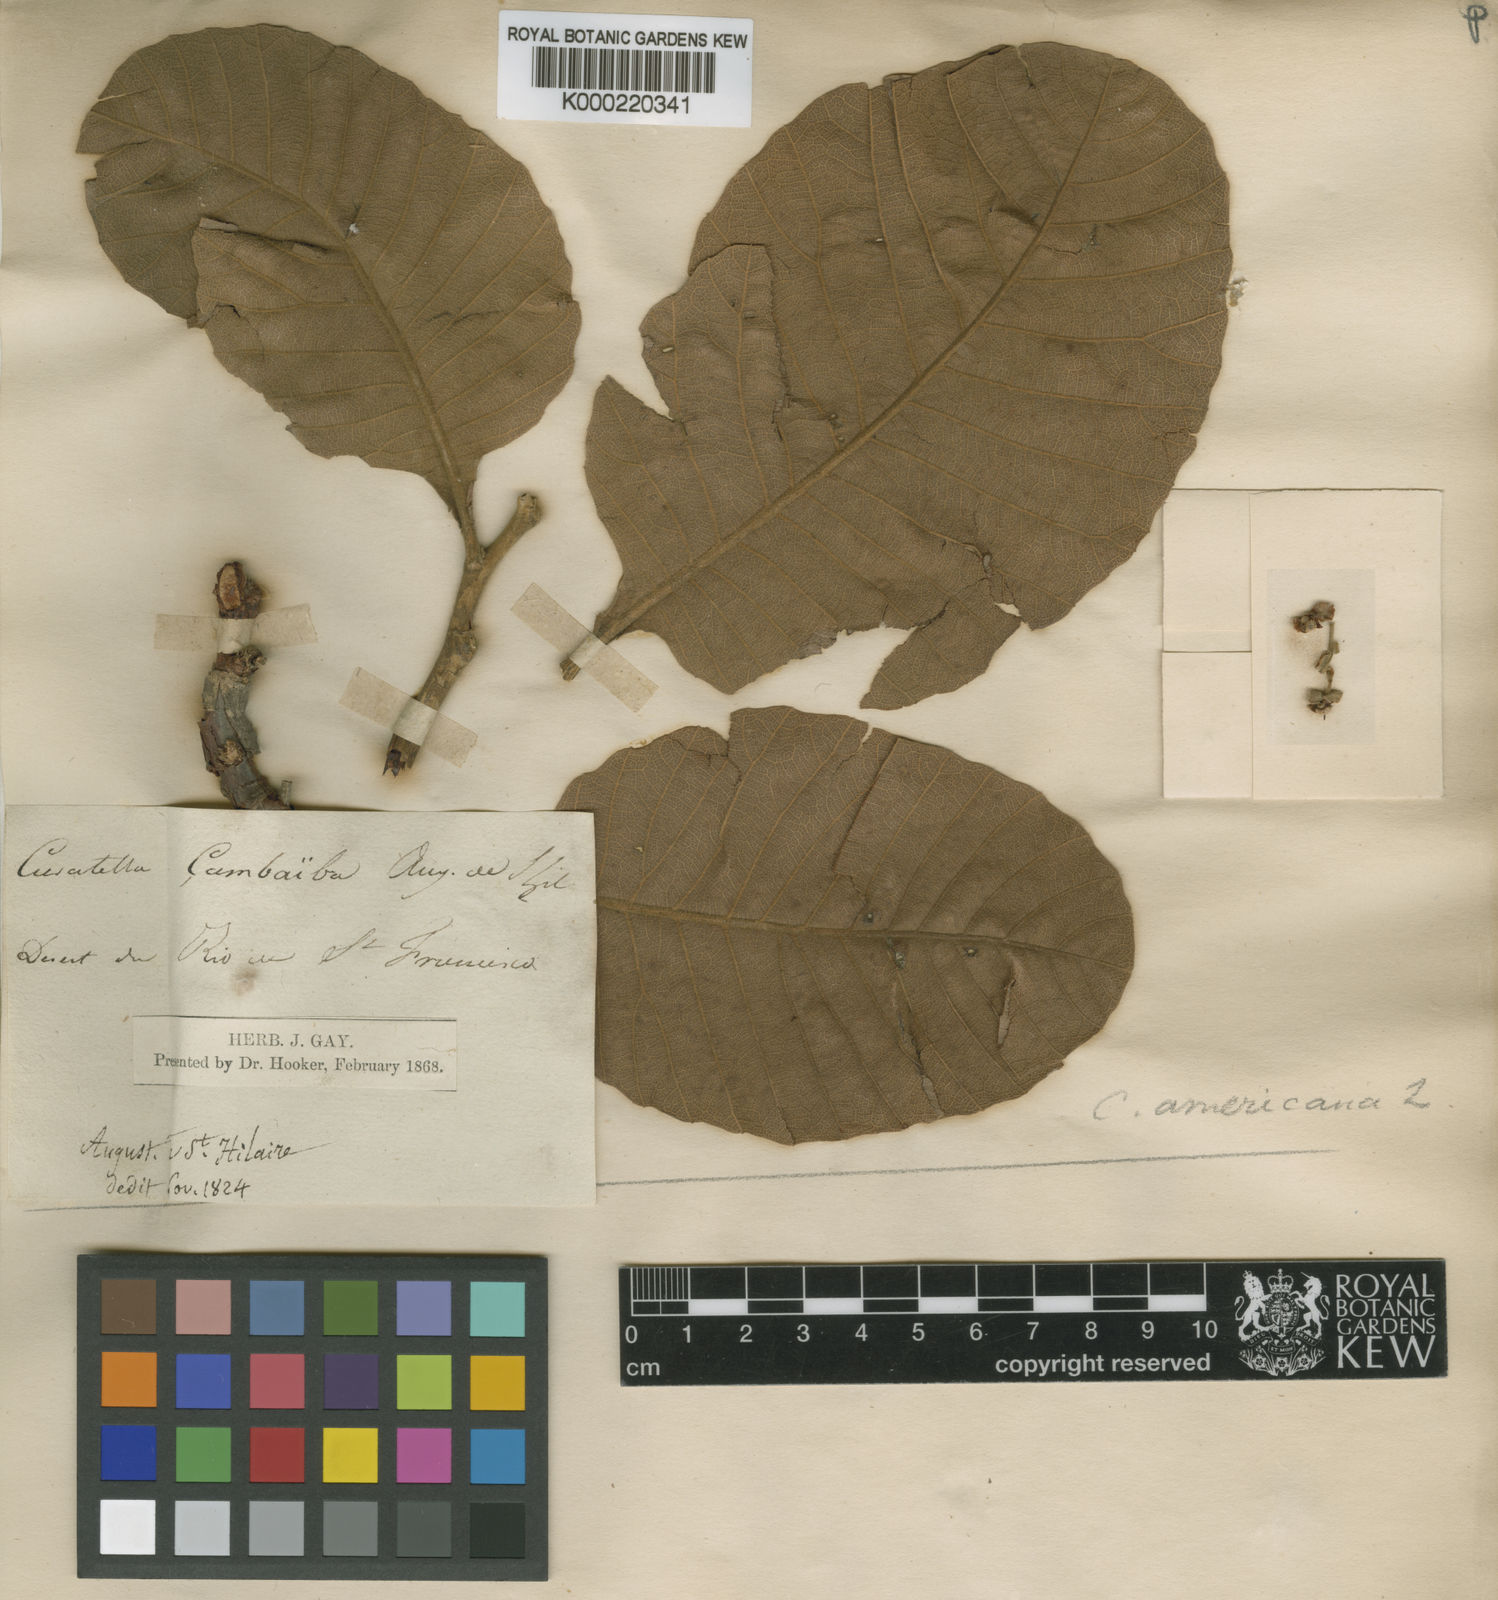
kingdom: Plantae
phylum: Tracheophyta
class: Magnoliopsida
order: Dilleniales
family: Dilleniaceae
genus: Curatella
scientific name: Curatella americana
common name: Sandpaper tree
